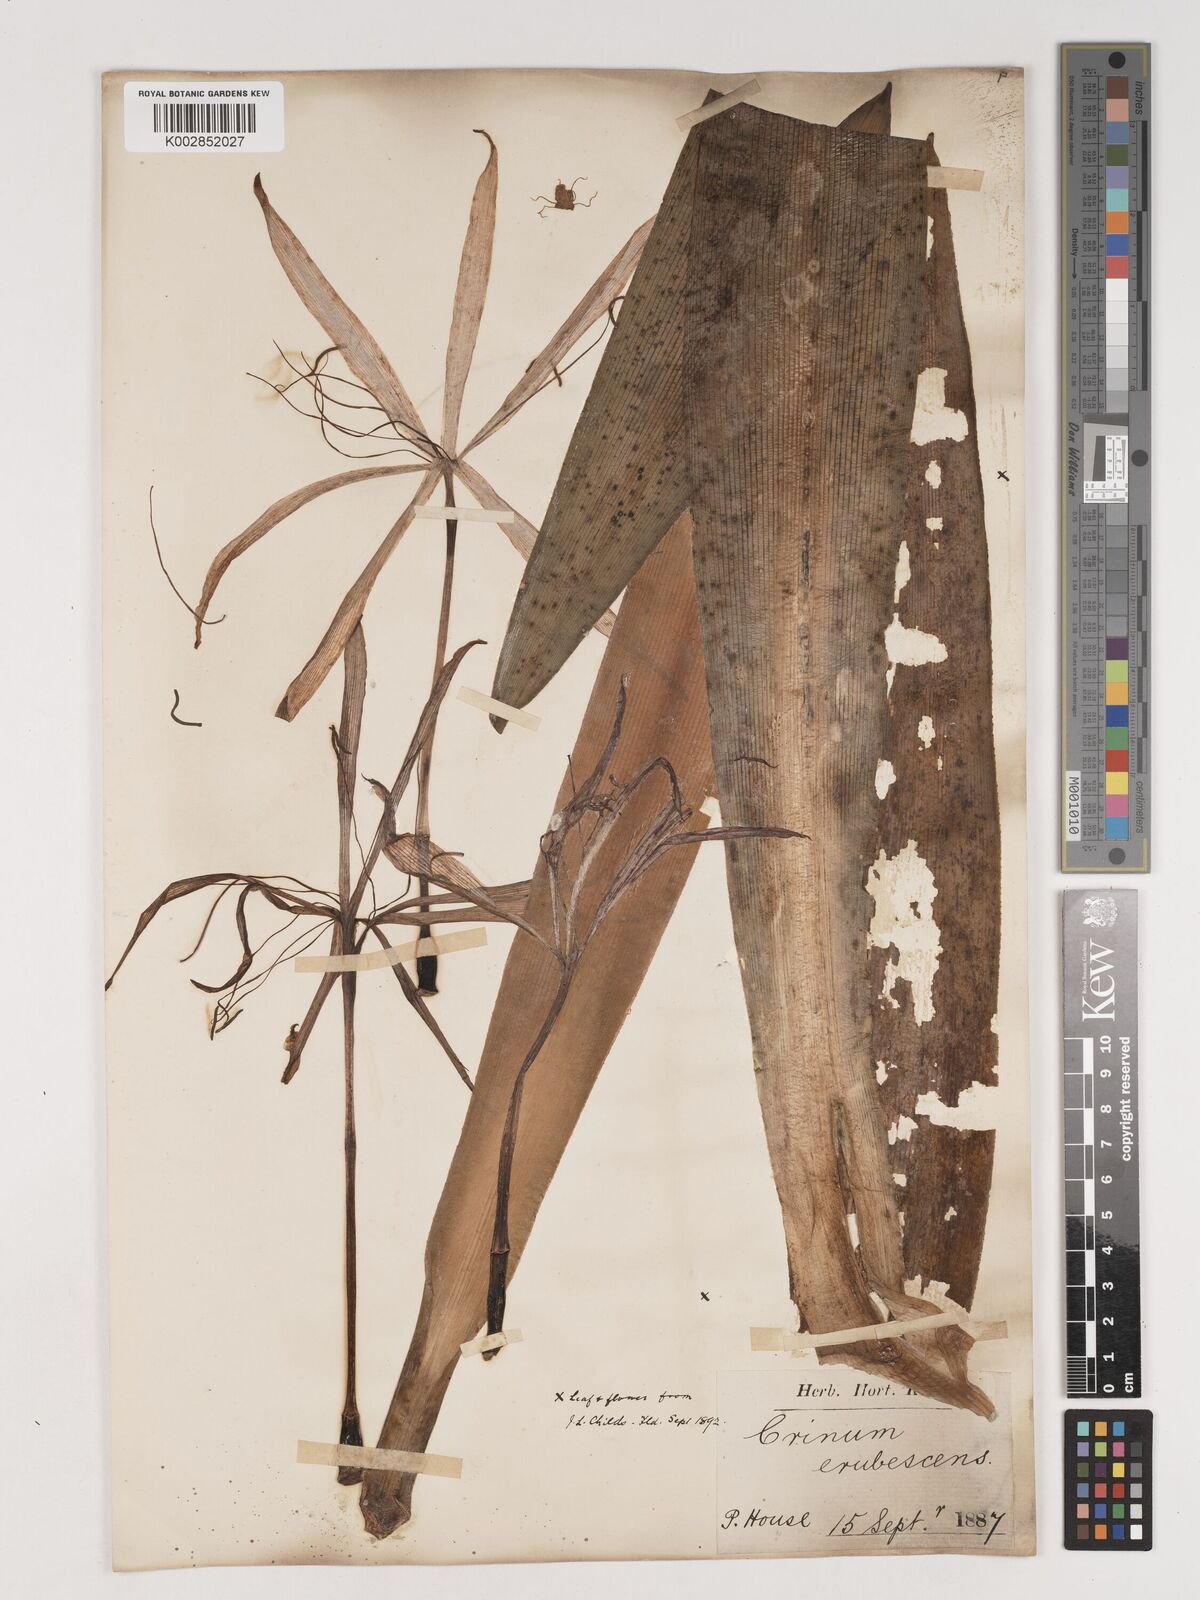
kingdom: Plantae
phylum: Tracheophyta
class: Liliopsida
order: Asparagales
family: Amaryllidaceae
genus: Crinum
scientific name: Crinum
